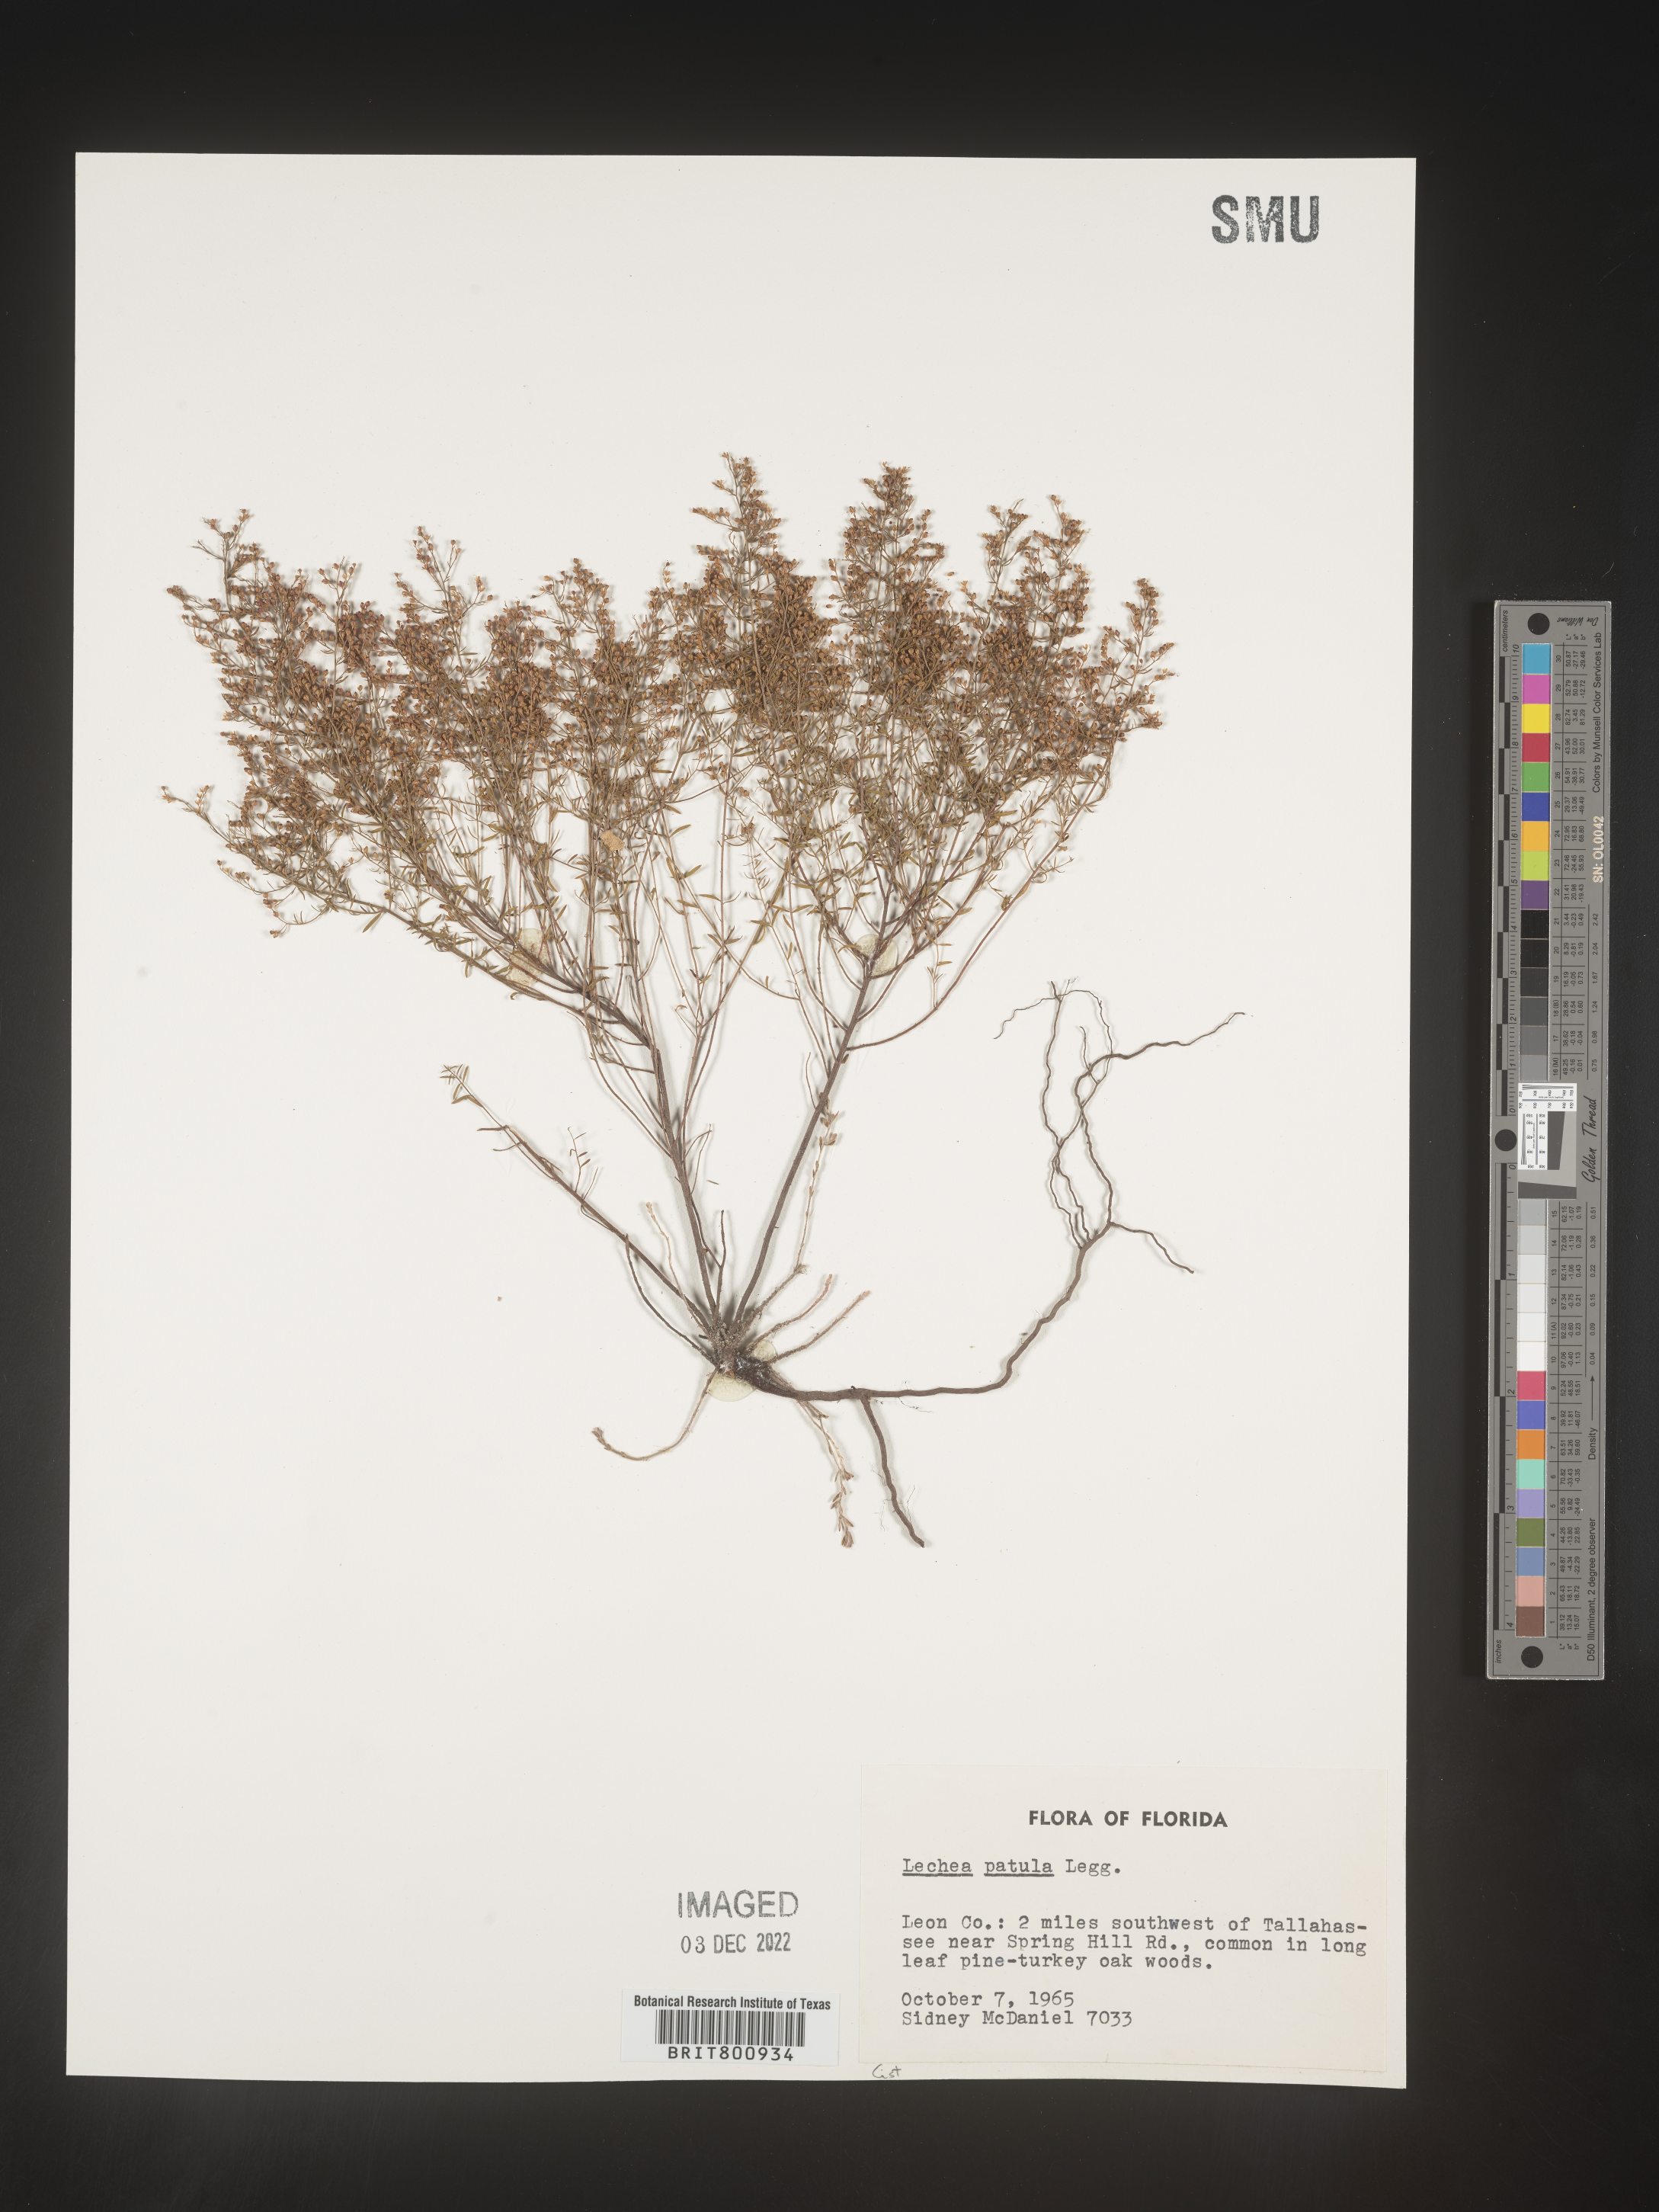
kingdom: Plantae
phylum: Tracheophyta
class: Magnoliopsida
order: Malvales
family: Cistaceae
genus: Lechea
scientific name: Lechea sessiliflora
